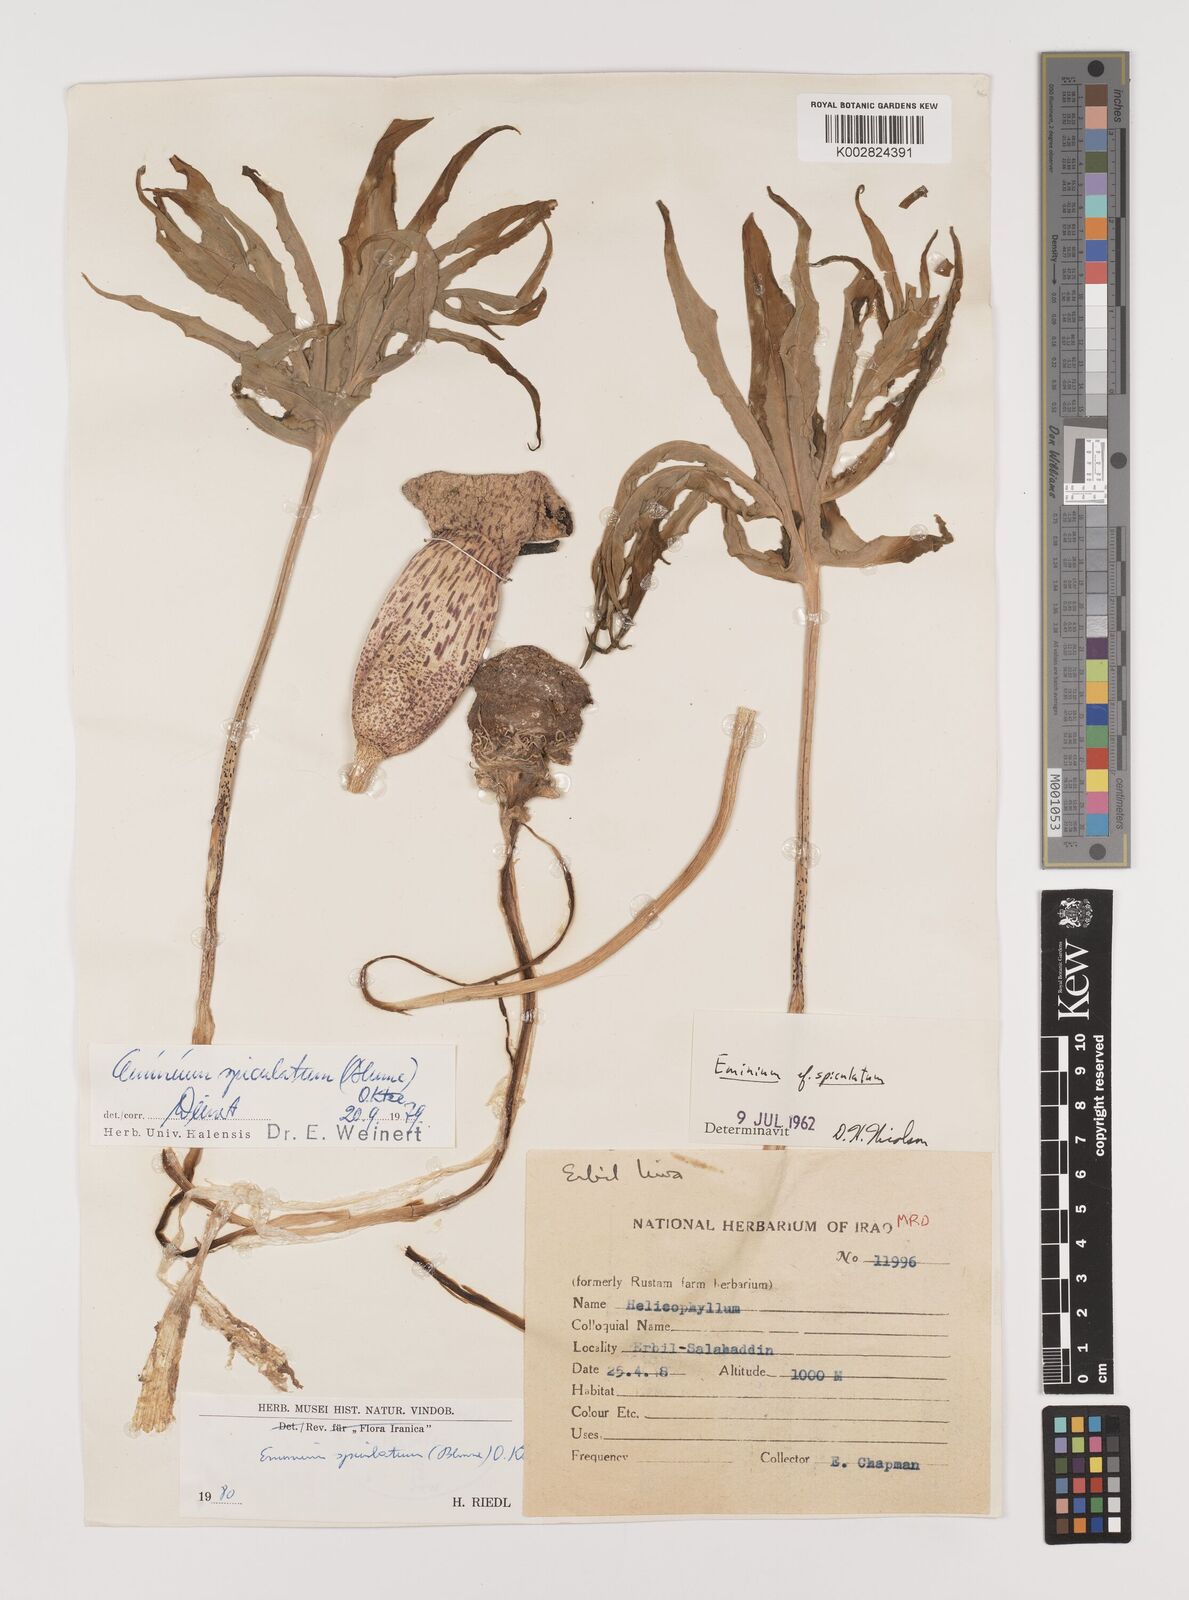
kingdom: Plantae
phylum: Tracheophyta
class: Liliopsida
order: Alismatales
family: Araceae
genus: Eminium
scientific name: Eminium spiculatum
